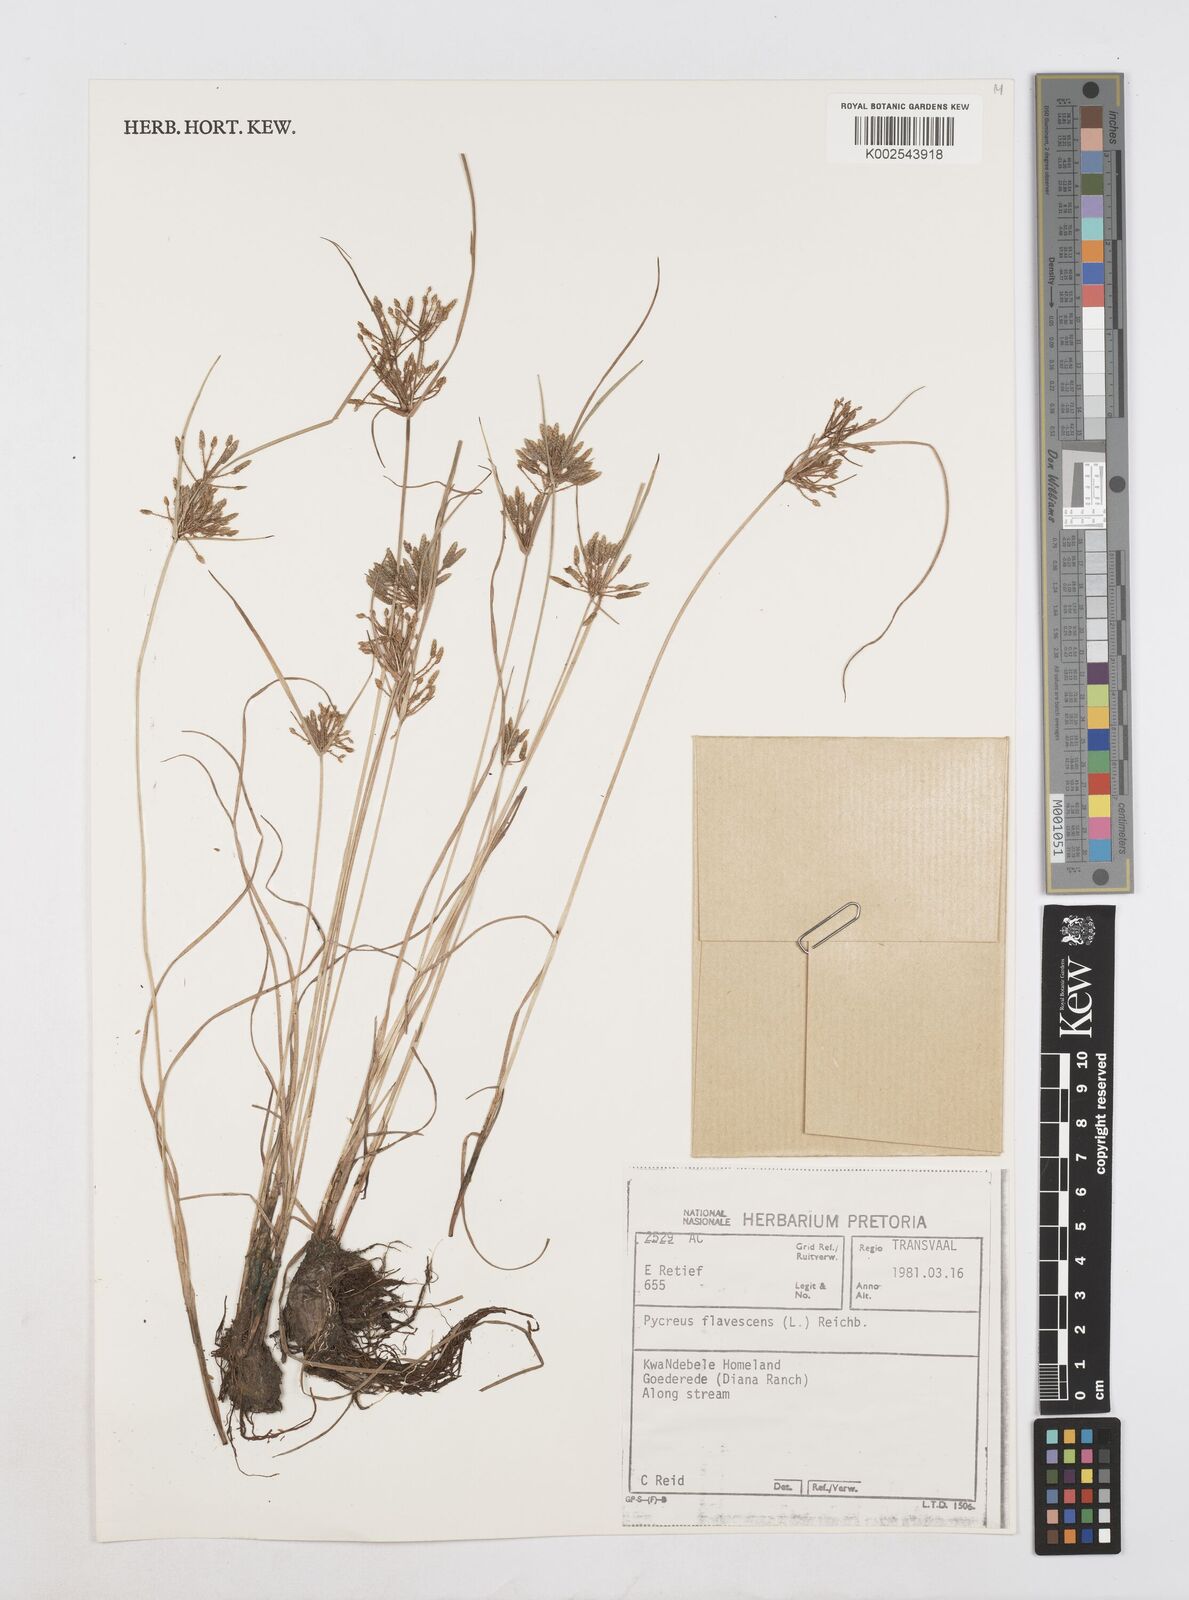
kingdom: Plantae
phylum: Tracheophyta
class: Liliopsida
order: Poales
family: Cyperaceae
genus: Cyperus
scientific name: Cyperus flavescens
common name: Yellow galingale
